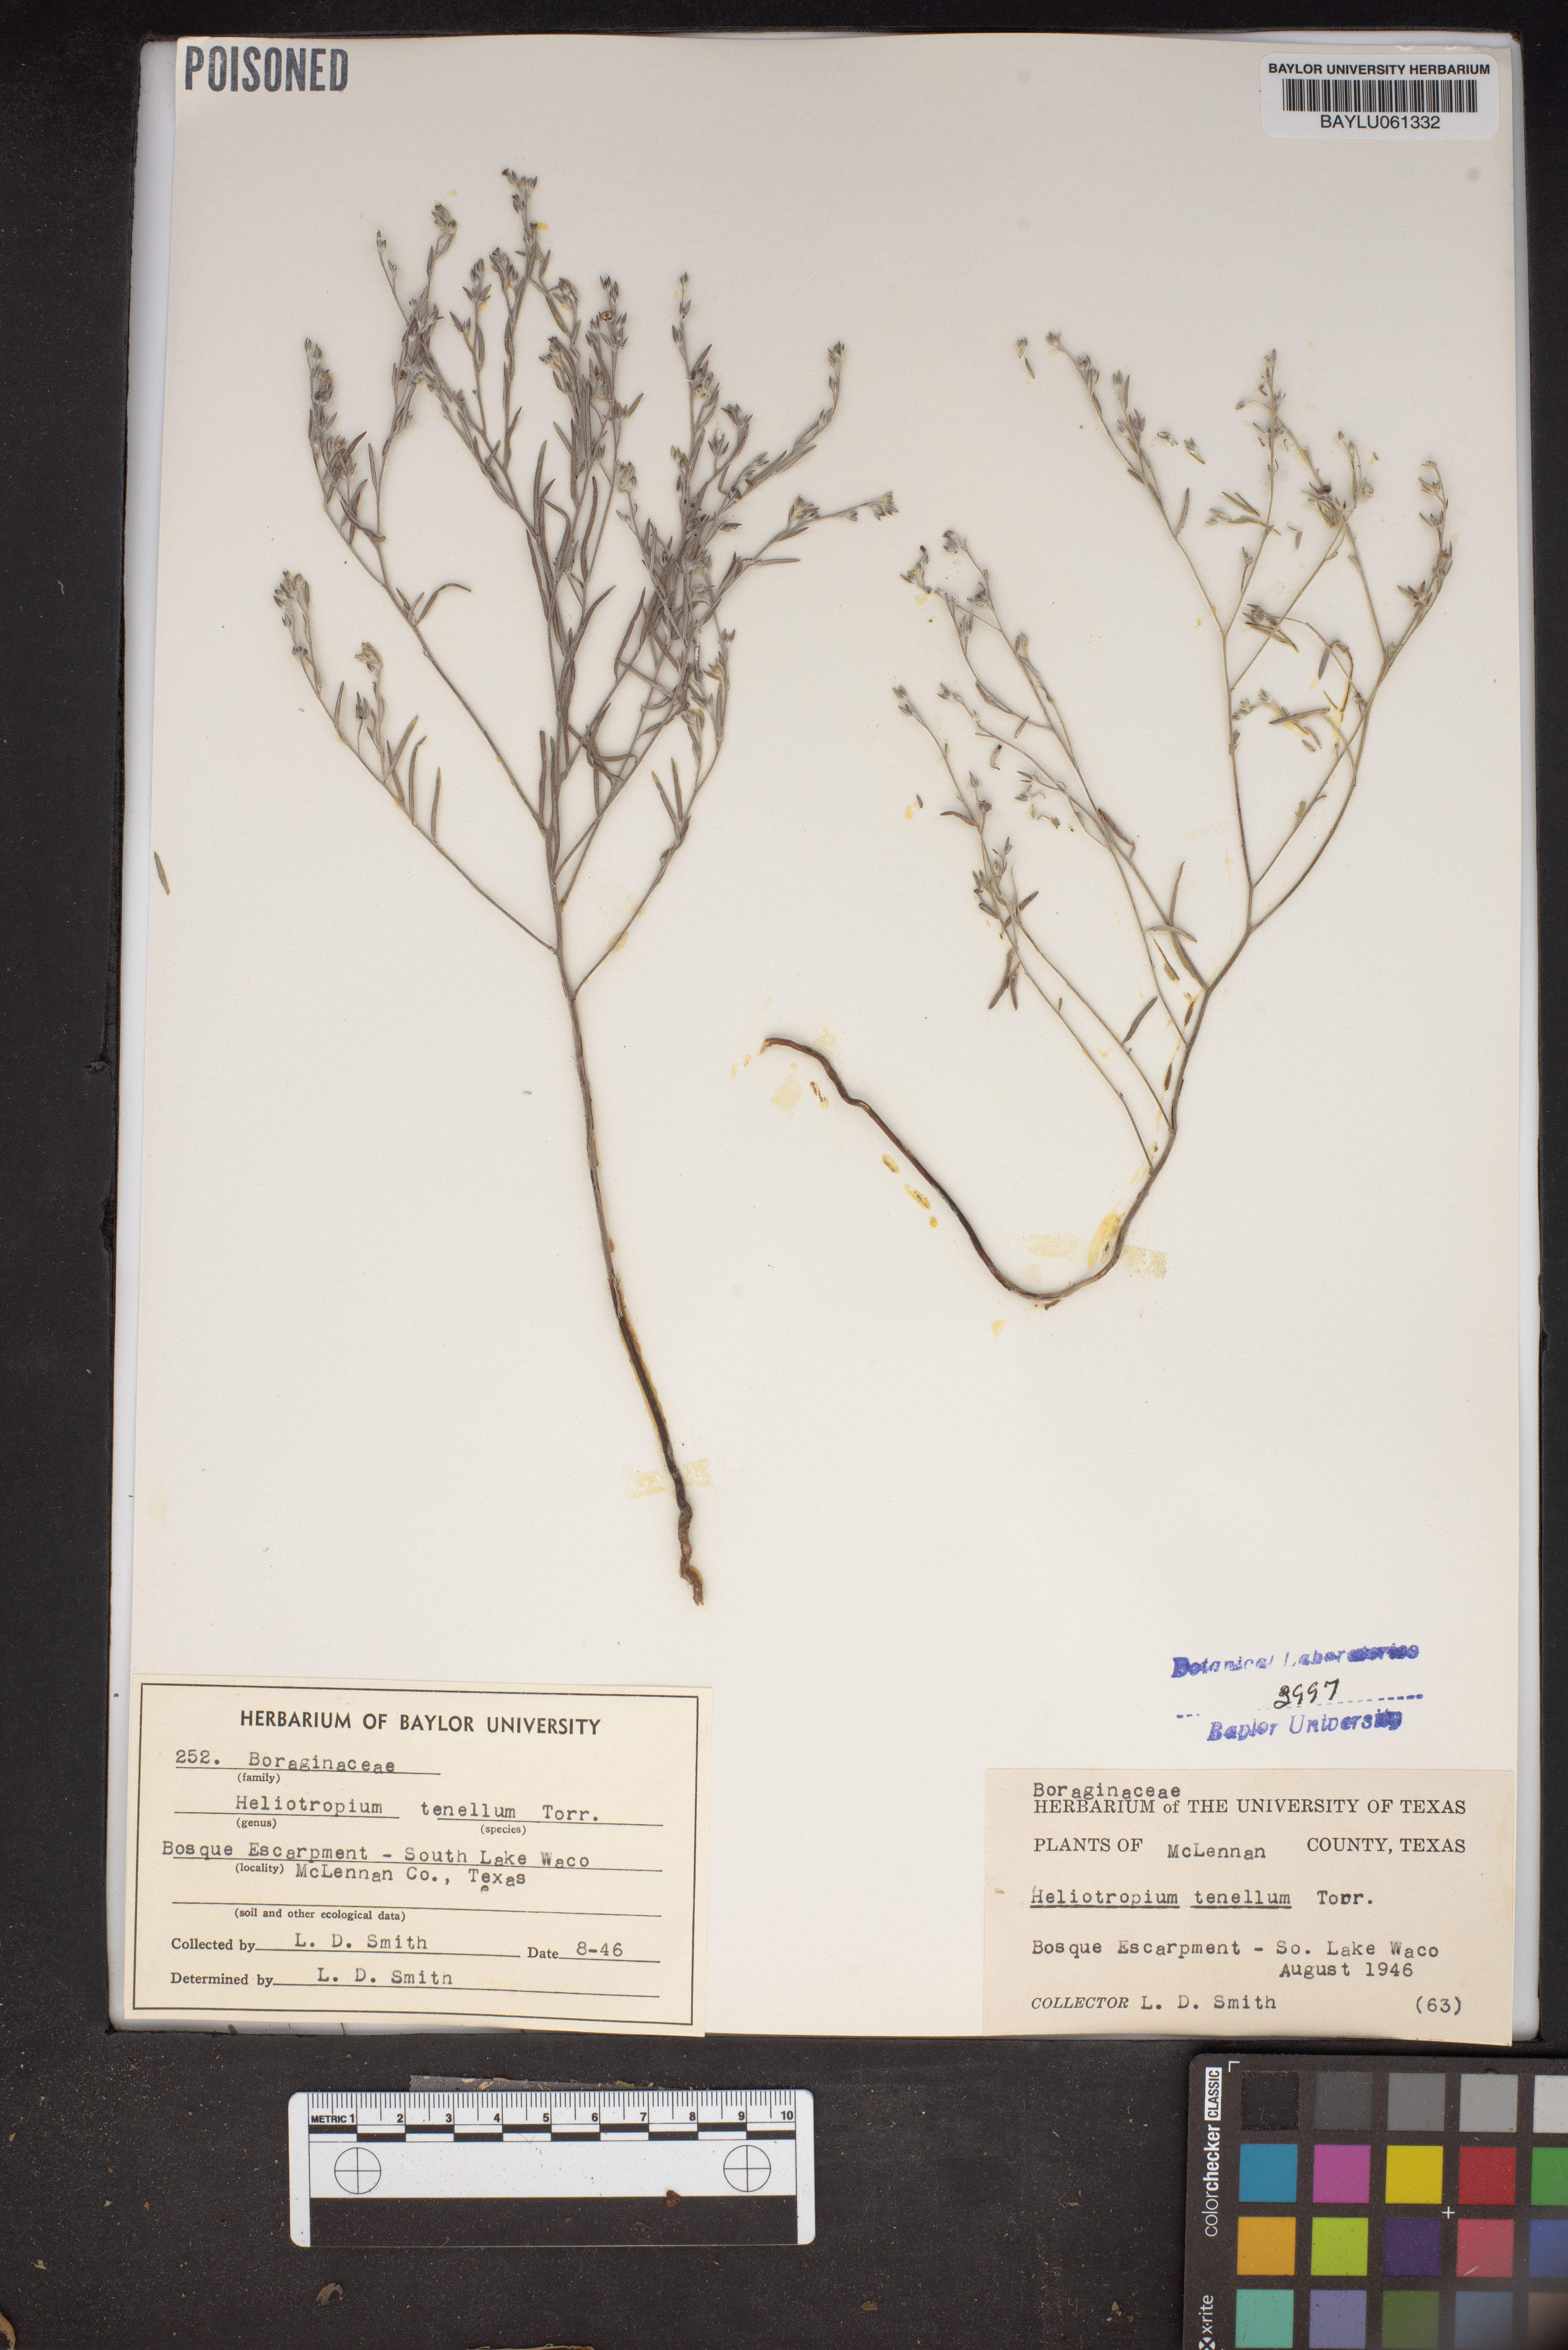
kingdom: Plantae
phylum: Tracheophyta
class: Magnoliopsida
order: Boraginales
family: Heliotropiaceae
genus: Euploca
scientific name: Euploca tenella
